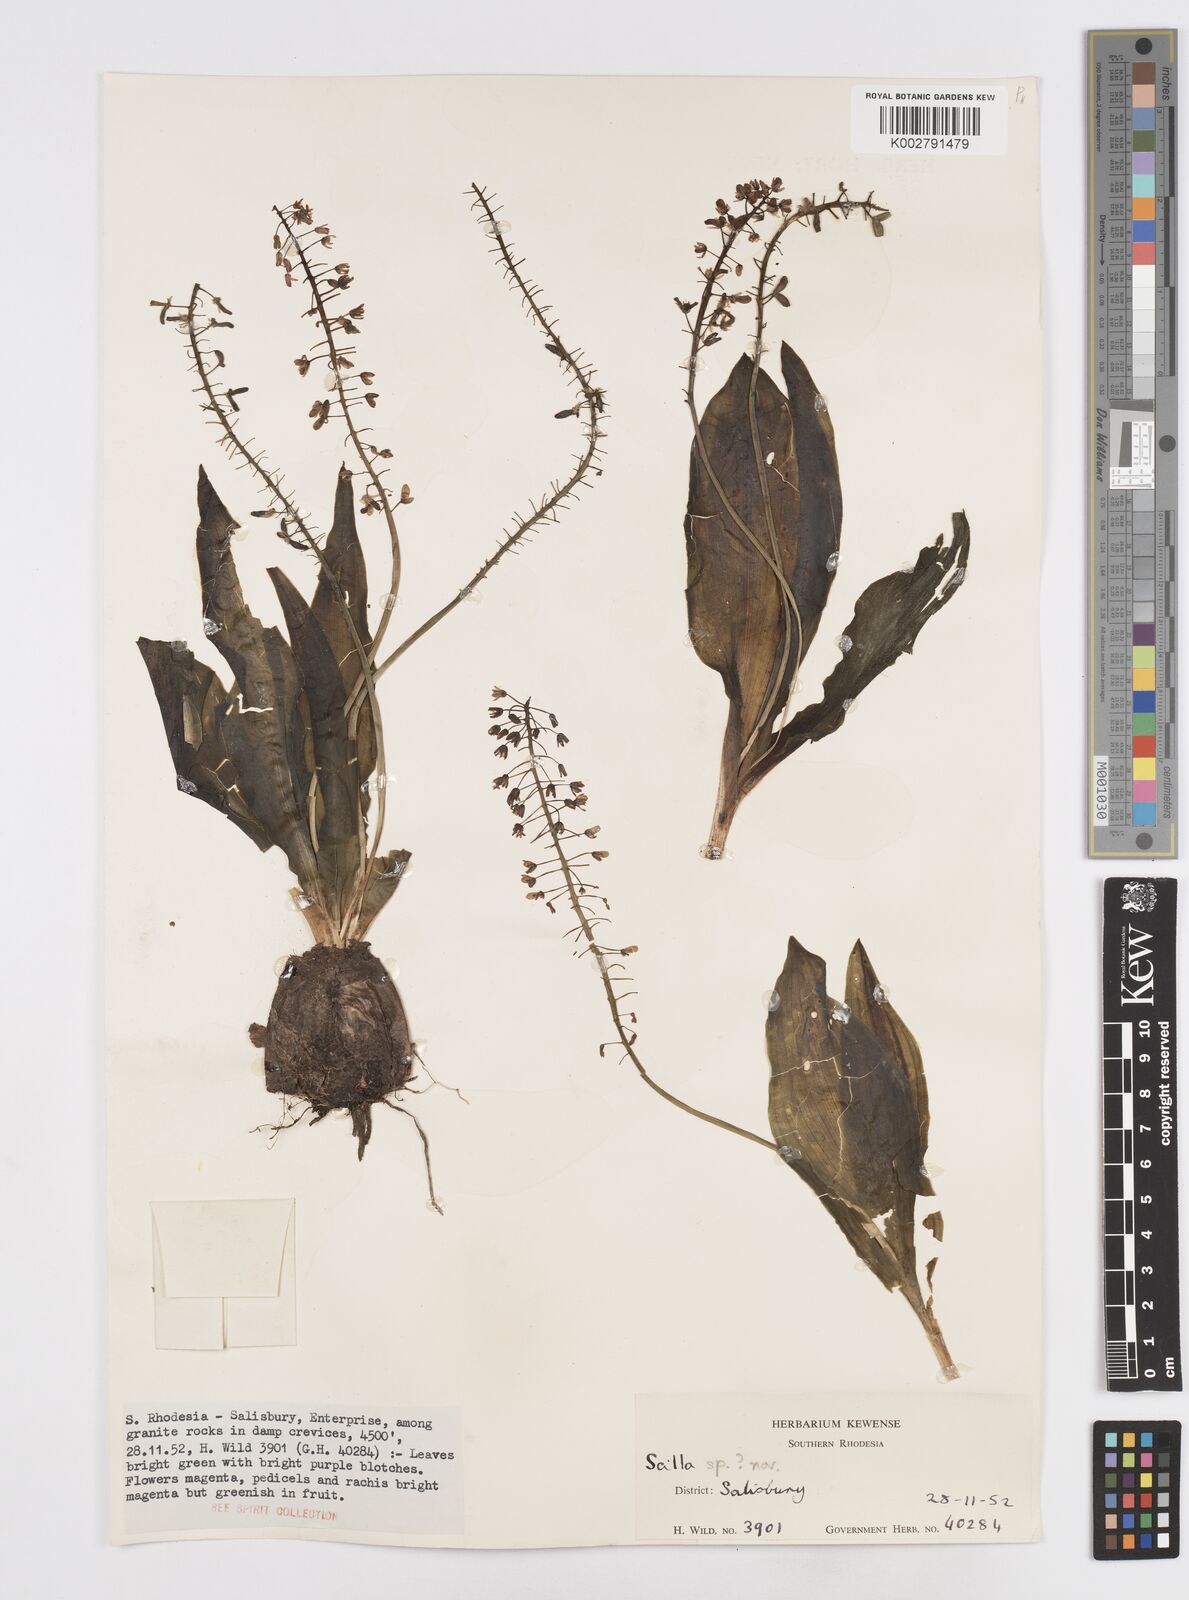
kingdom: Plantae
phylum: Tracheophyta
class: Liliopsida
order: Asparagales
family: Asparagaceae
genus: Scilla
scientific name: Scilla
